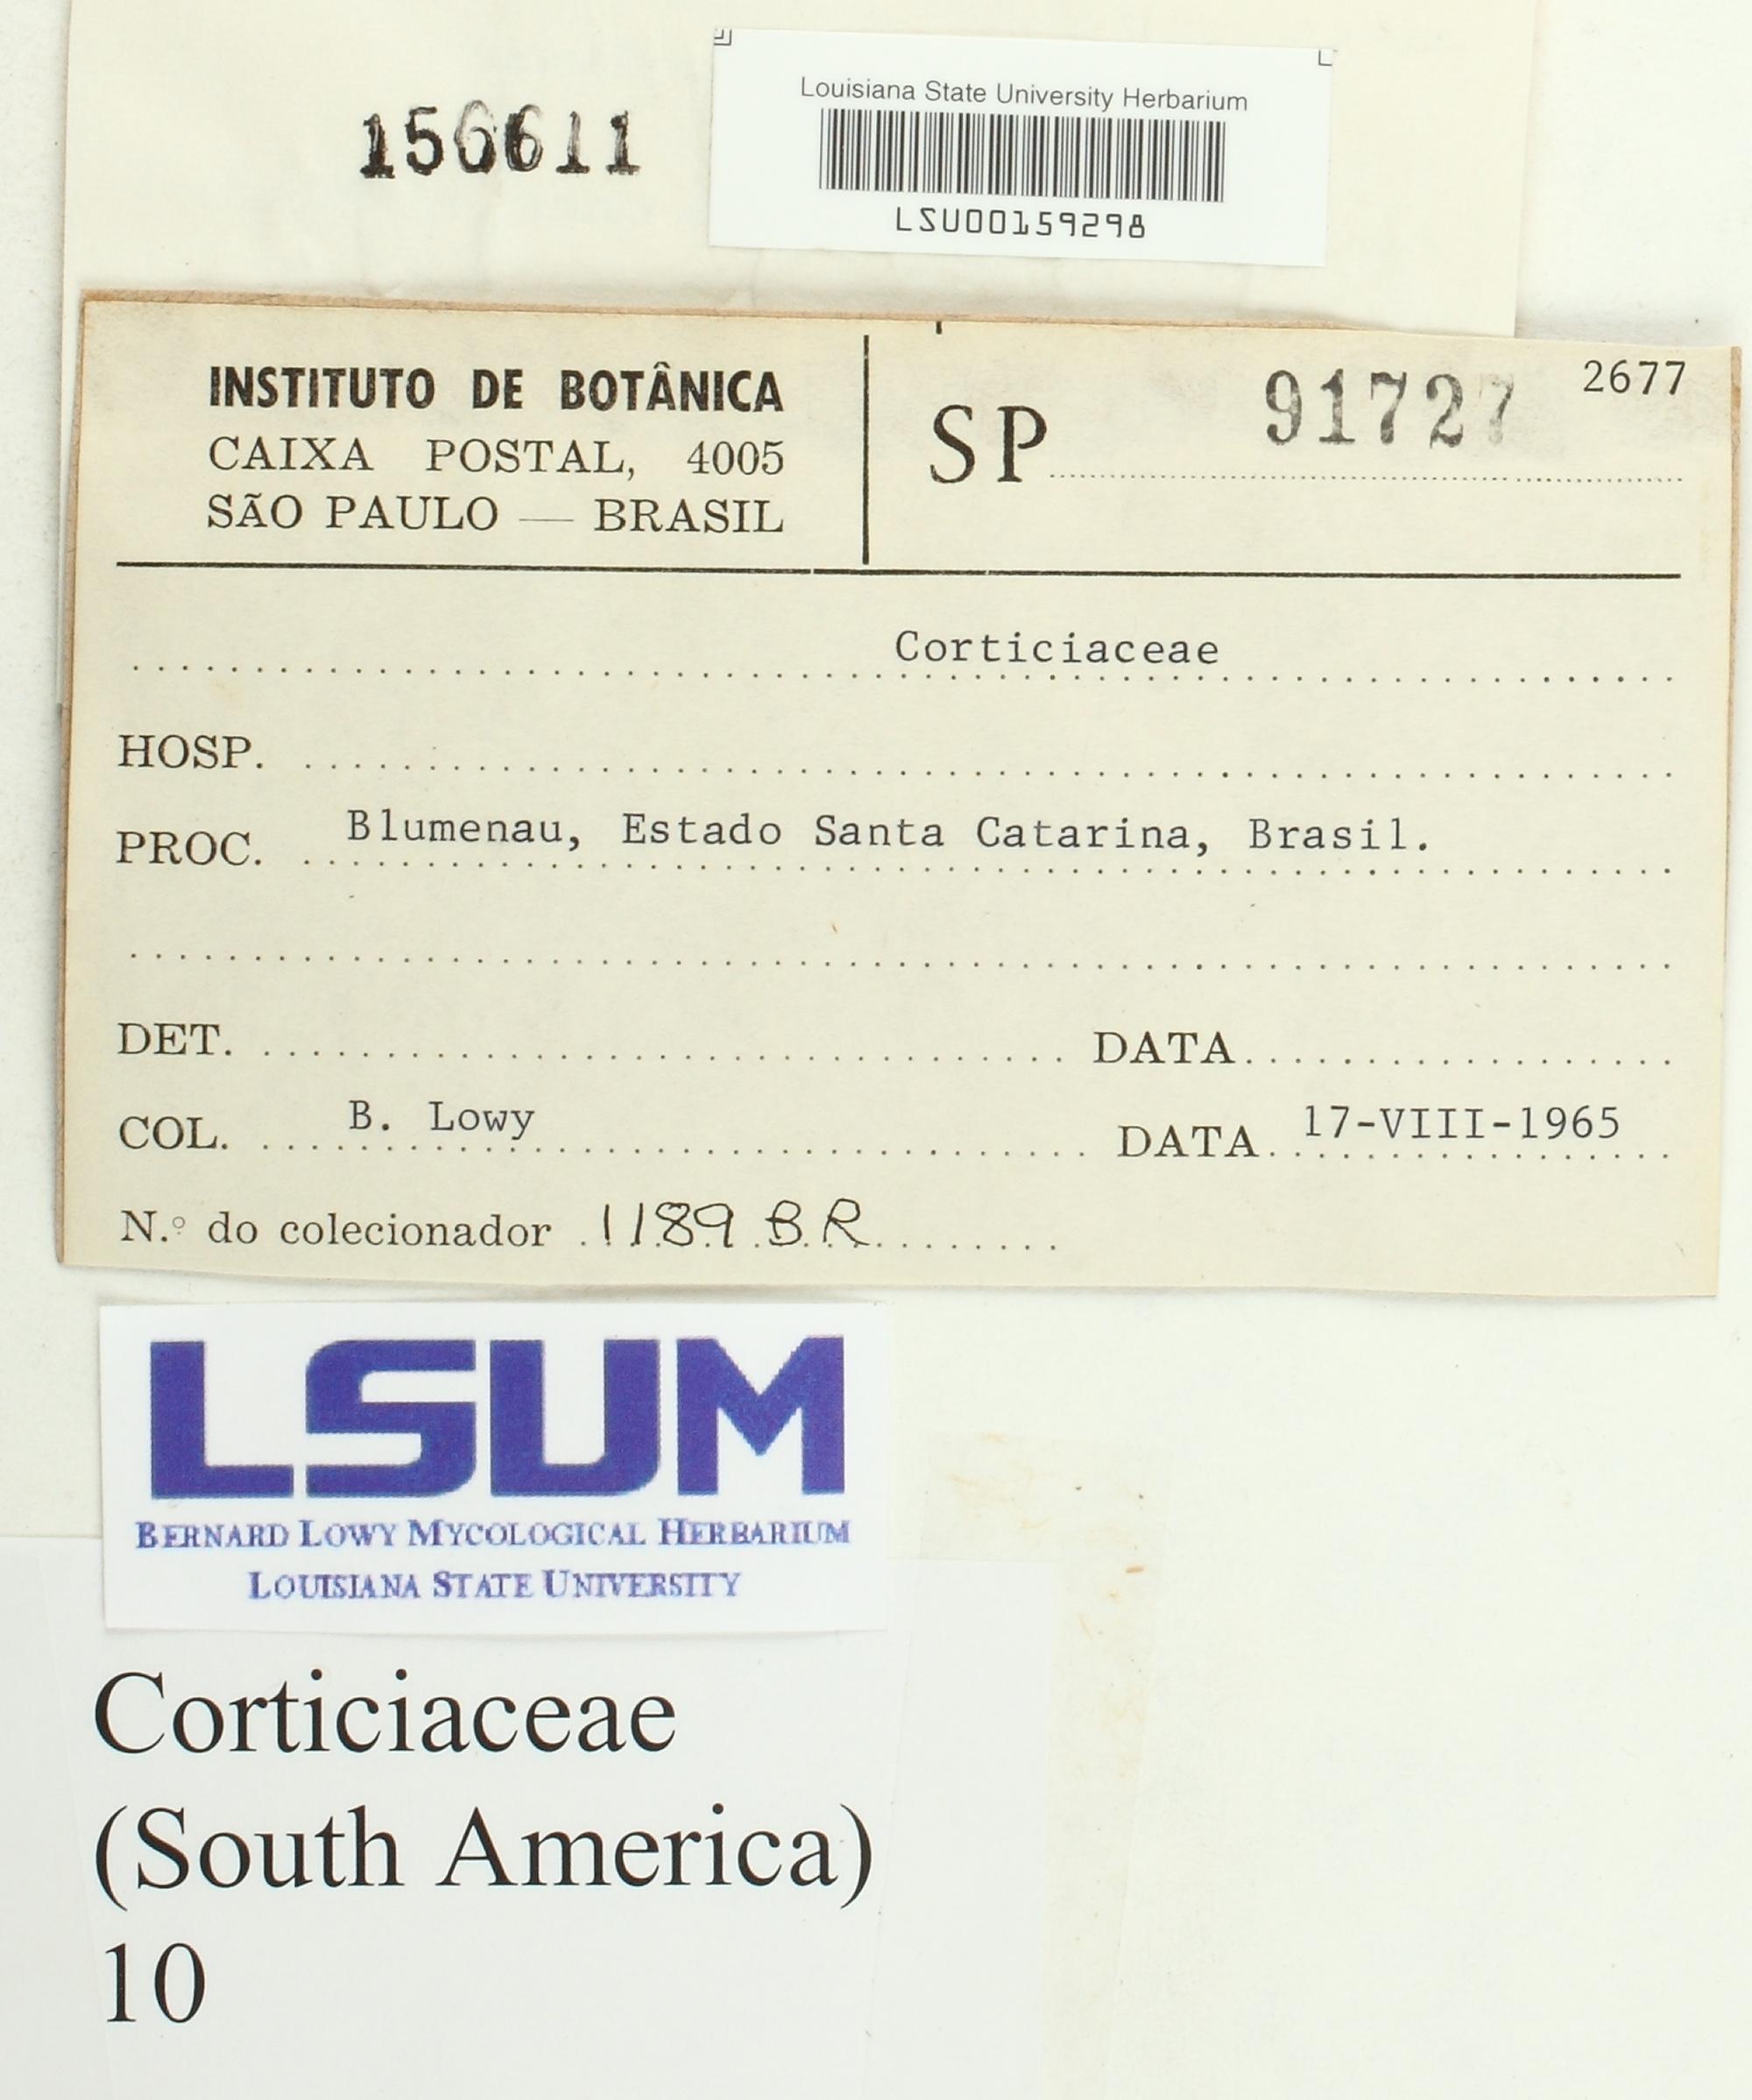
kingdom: Fungi
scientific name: Fungi
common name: Fungi
